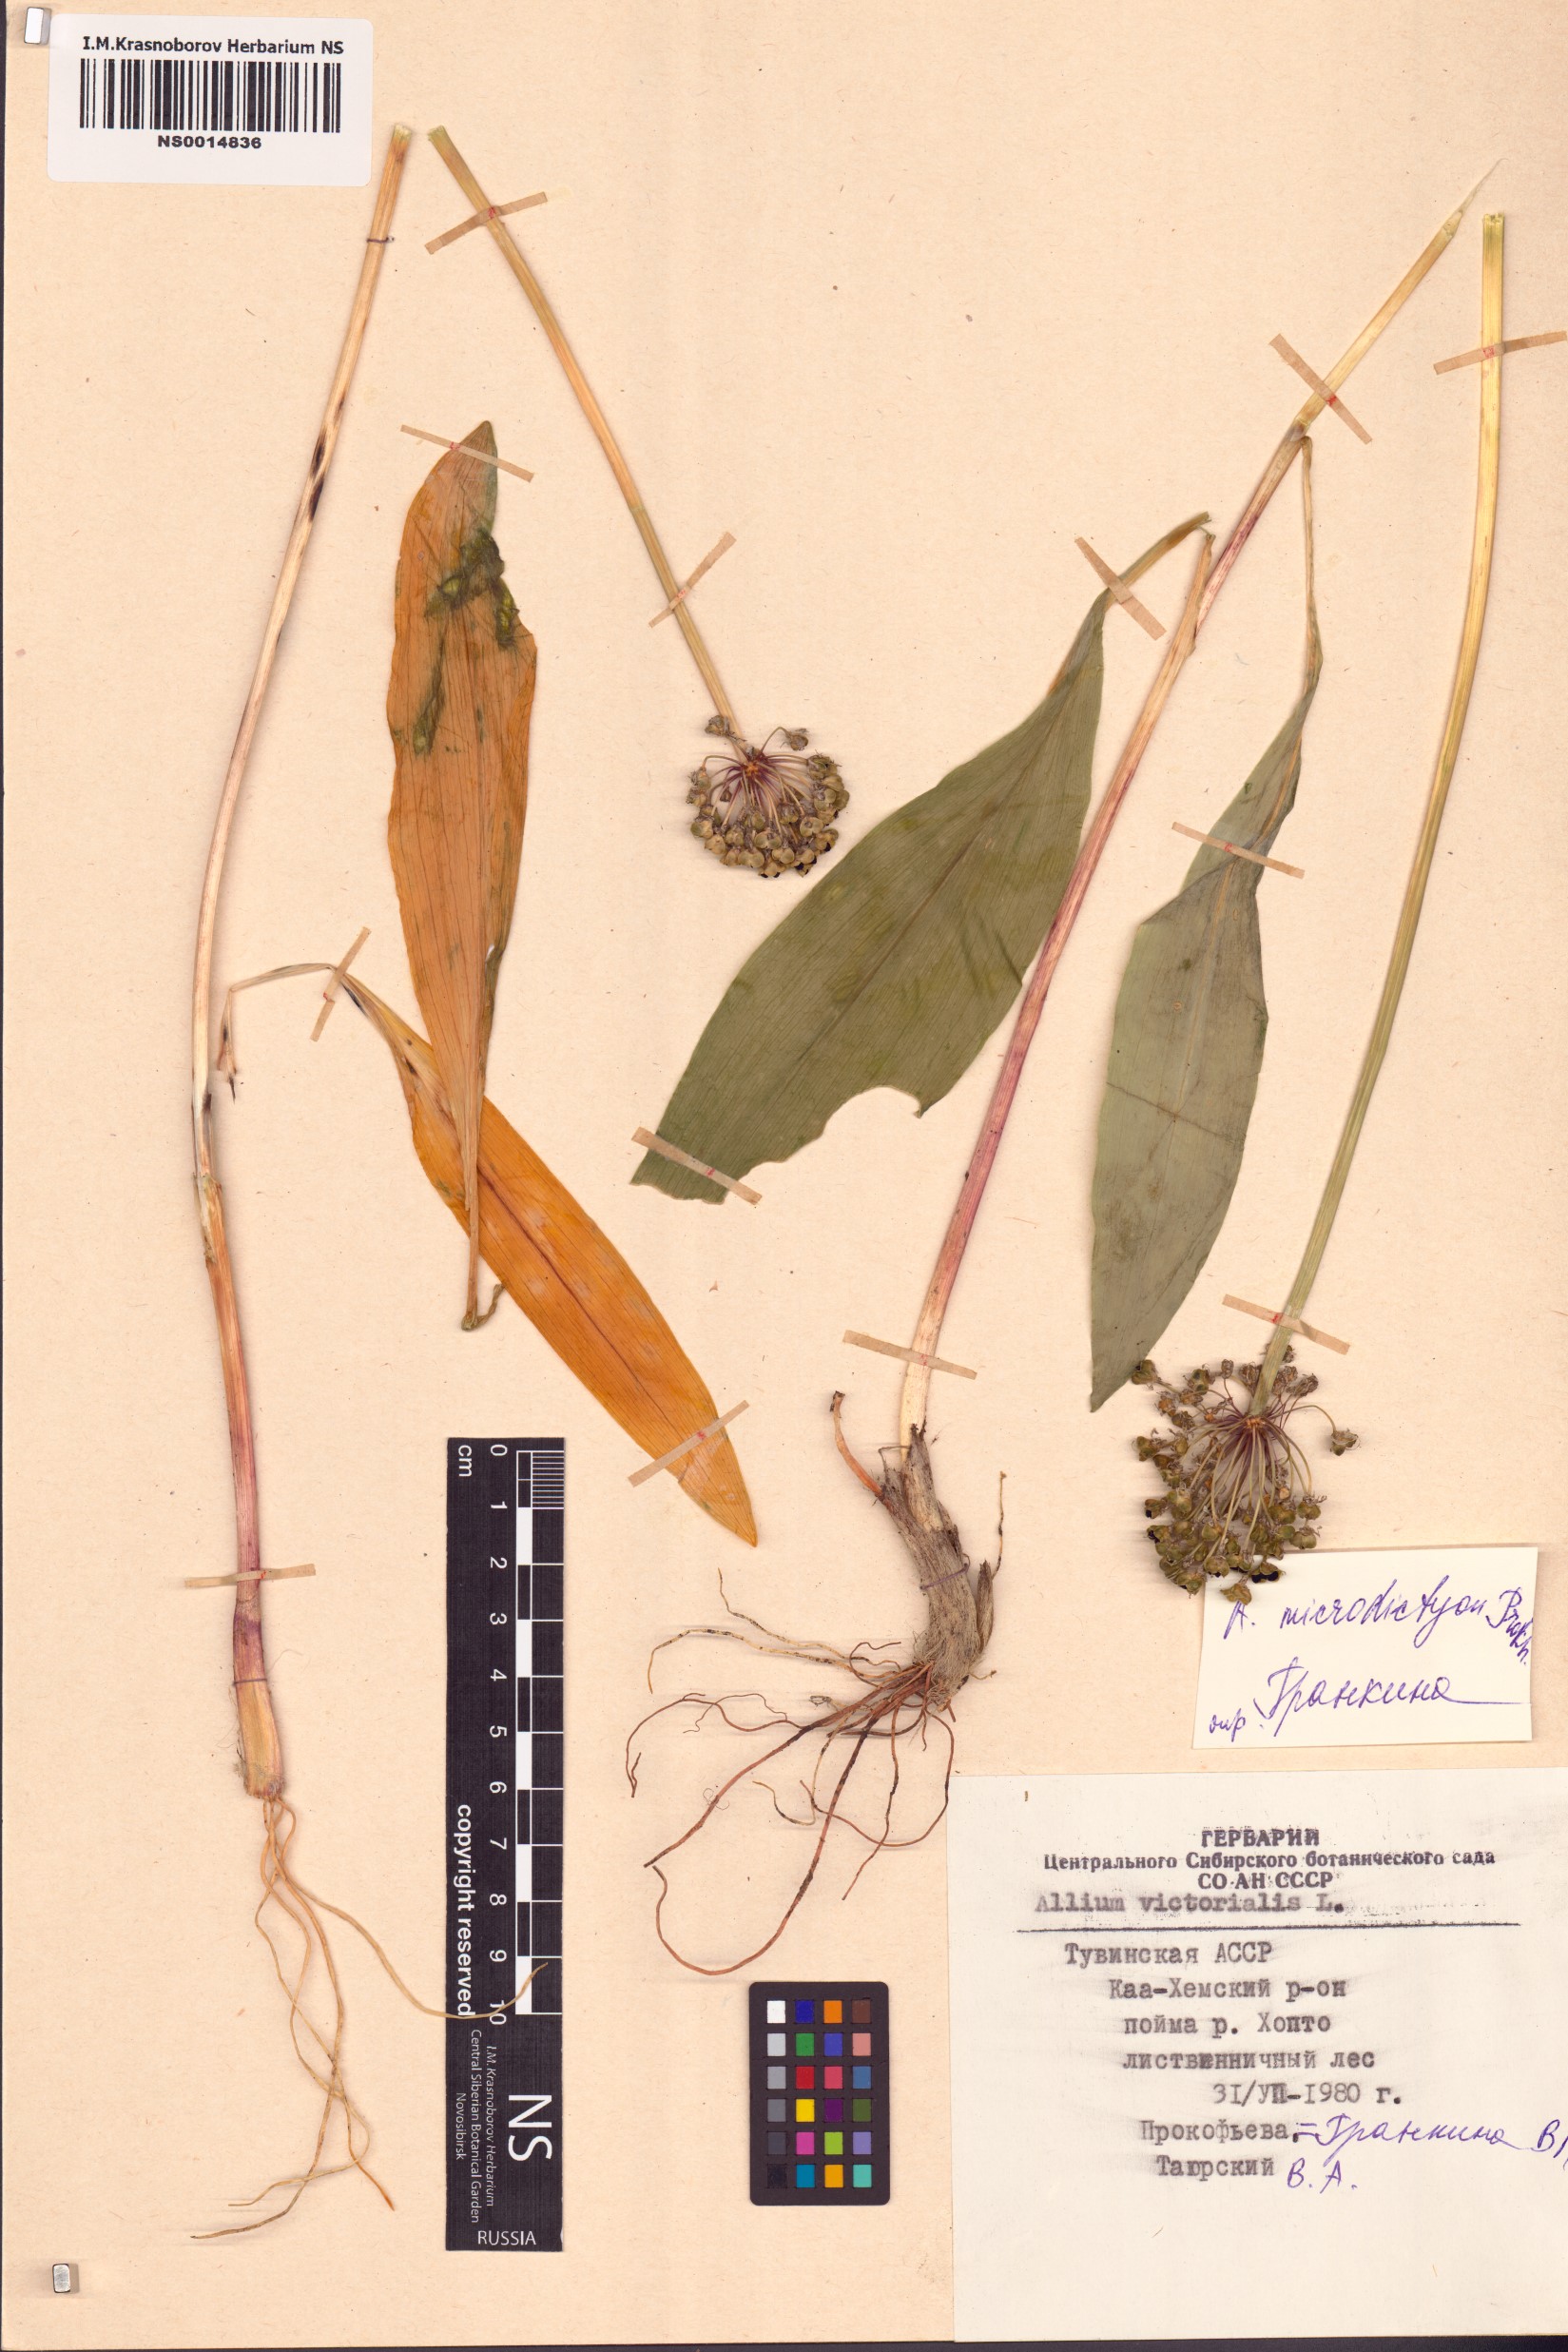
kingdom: Plantae
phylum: Tracheophyta
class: Liliopsida
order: Asparagales
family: Amaryllidaceae
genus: Allium
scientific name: Allium microdictyon
